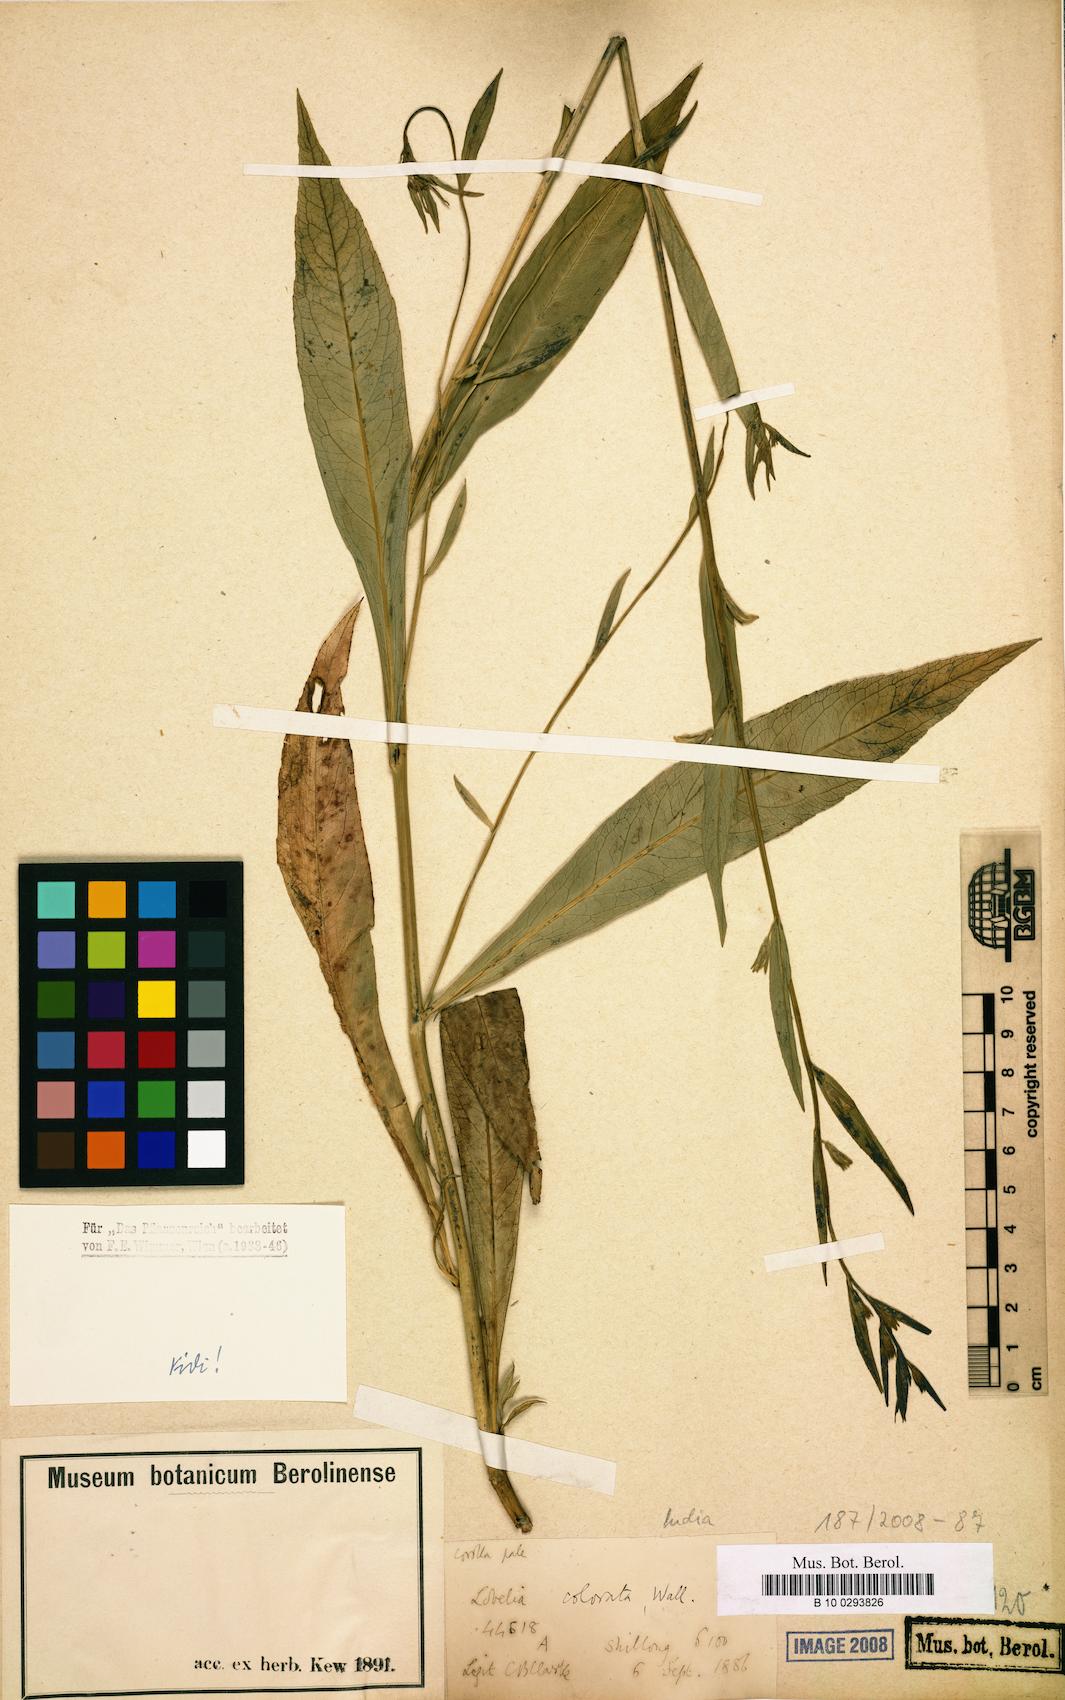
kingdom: Plantae
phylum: Tracheophyta
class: Magnoliopsida
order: Asterales
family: Campanulaceae
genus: Lobelia
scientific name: Lobelia
